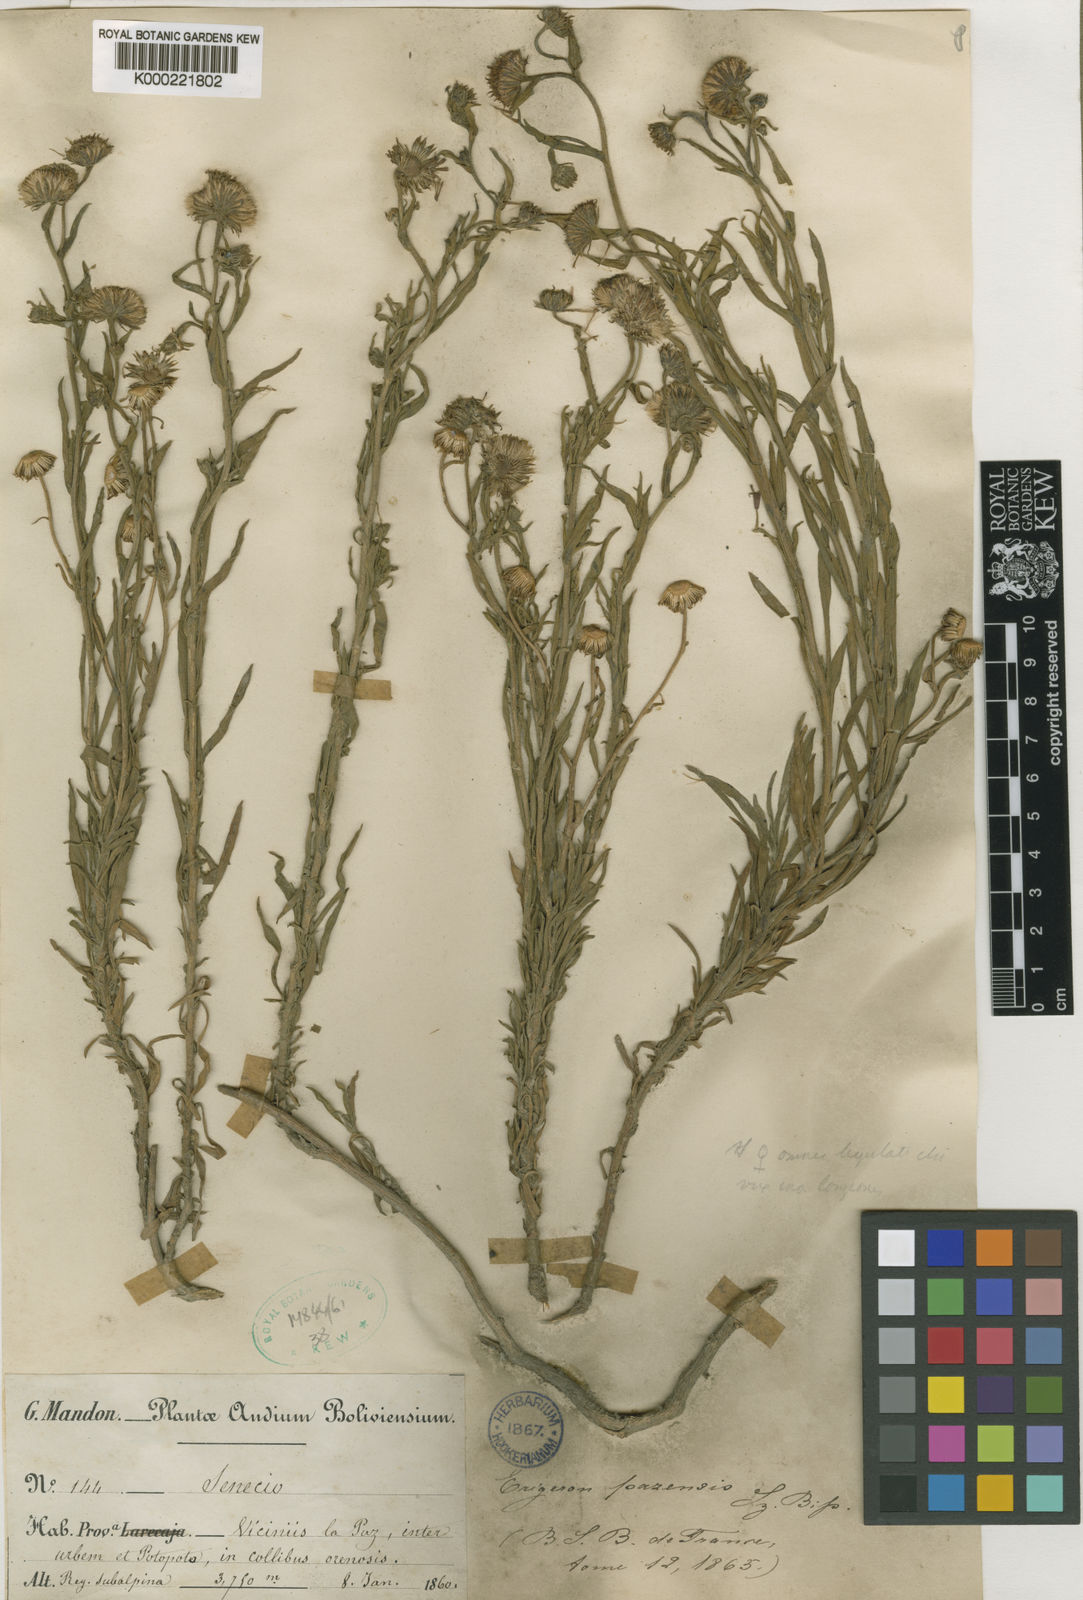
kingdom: Plantae
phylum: Tracheophyta
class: Magnoliopsida
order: Asterales
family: Asteraceae
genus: Erigeron
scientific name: Erigeron
